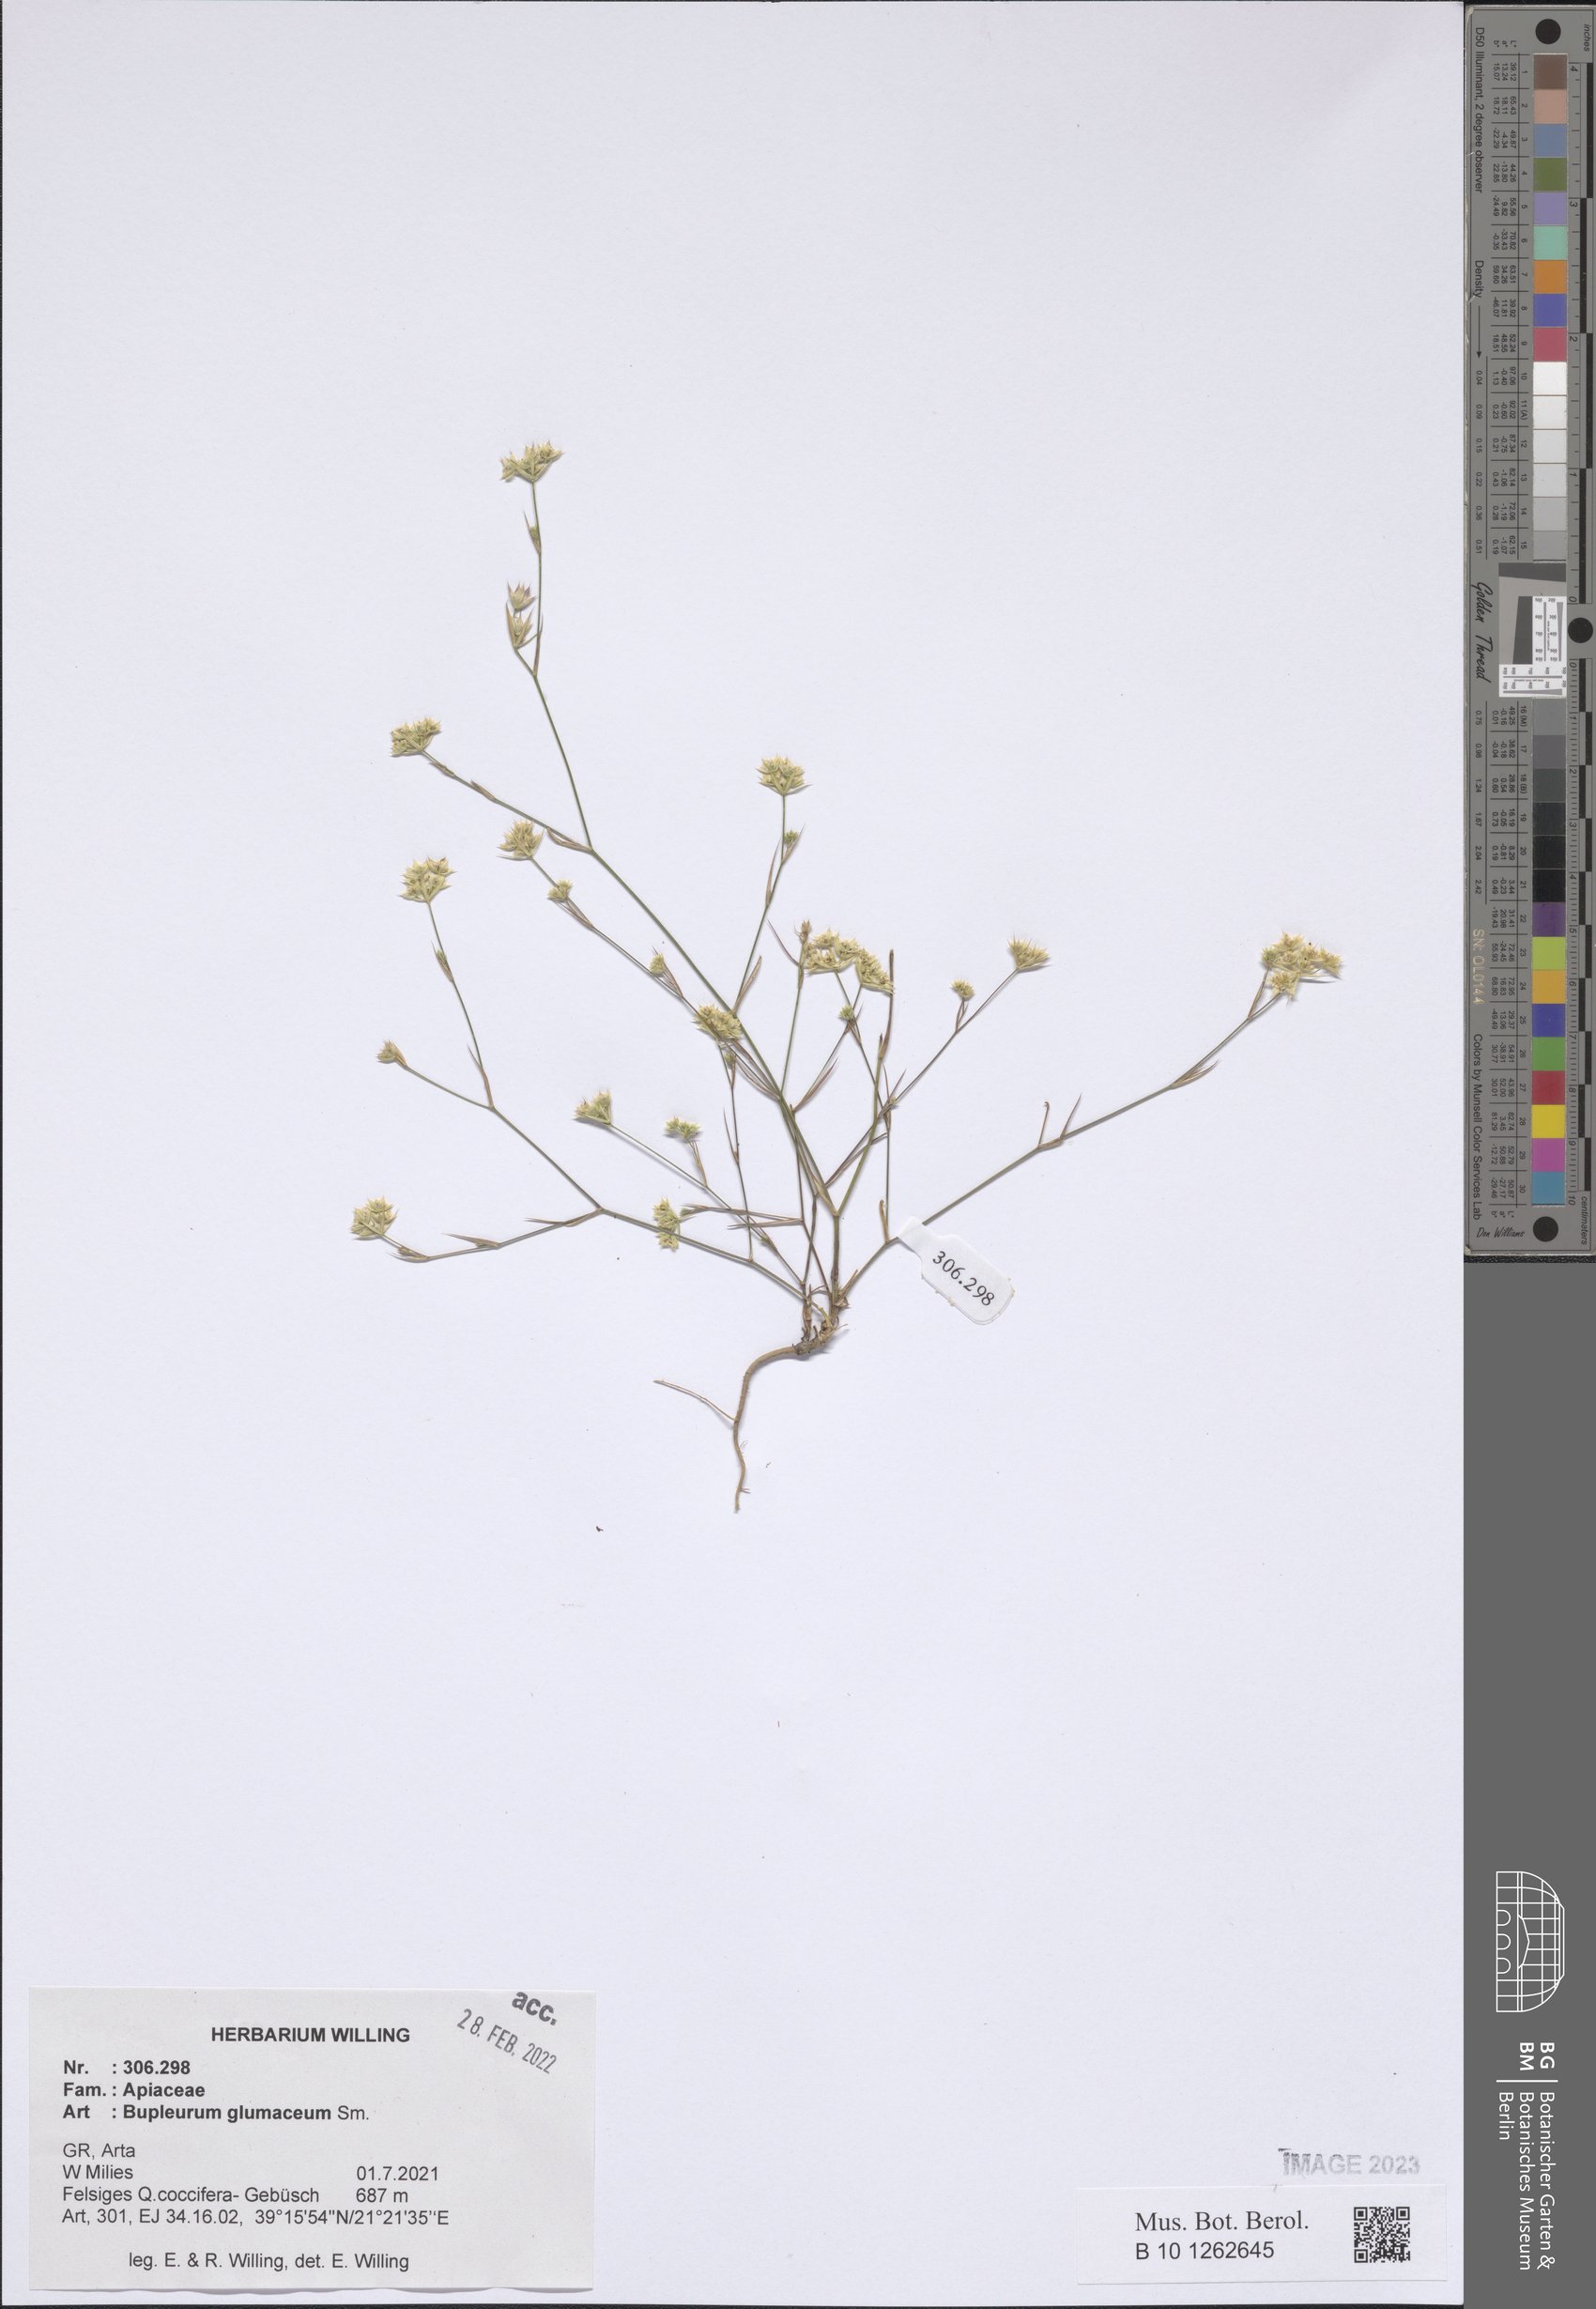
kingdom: Plantae
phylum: Tracheophyta
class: Magnoliopsida
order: Apiales
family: Apiaceae
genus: Bupleurum
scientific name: Bupleurum glumaceum
